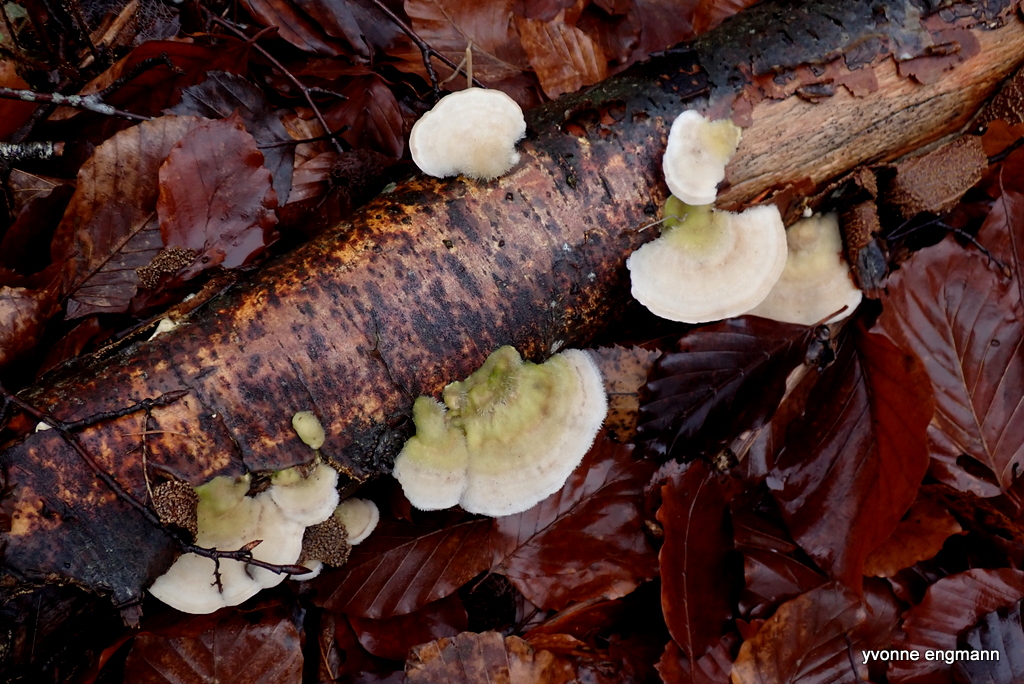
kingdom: Fungi
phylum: Basidiomycota
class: Agaricomycetes
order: Polyporales
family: Polyporaceae
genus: Trametes
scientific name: Trametes hirsuta
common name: håret læderporesvamp
